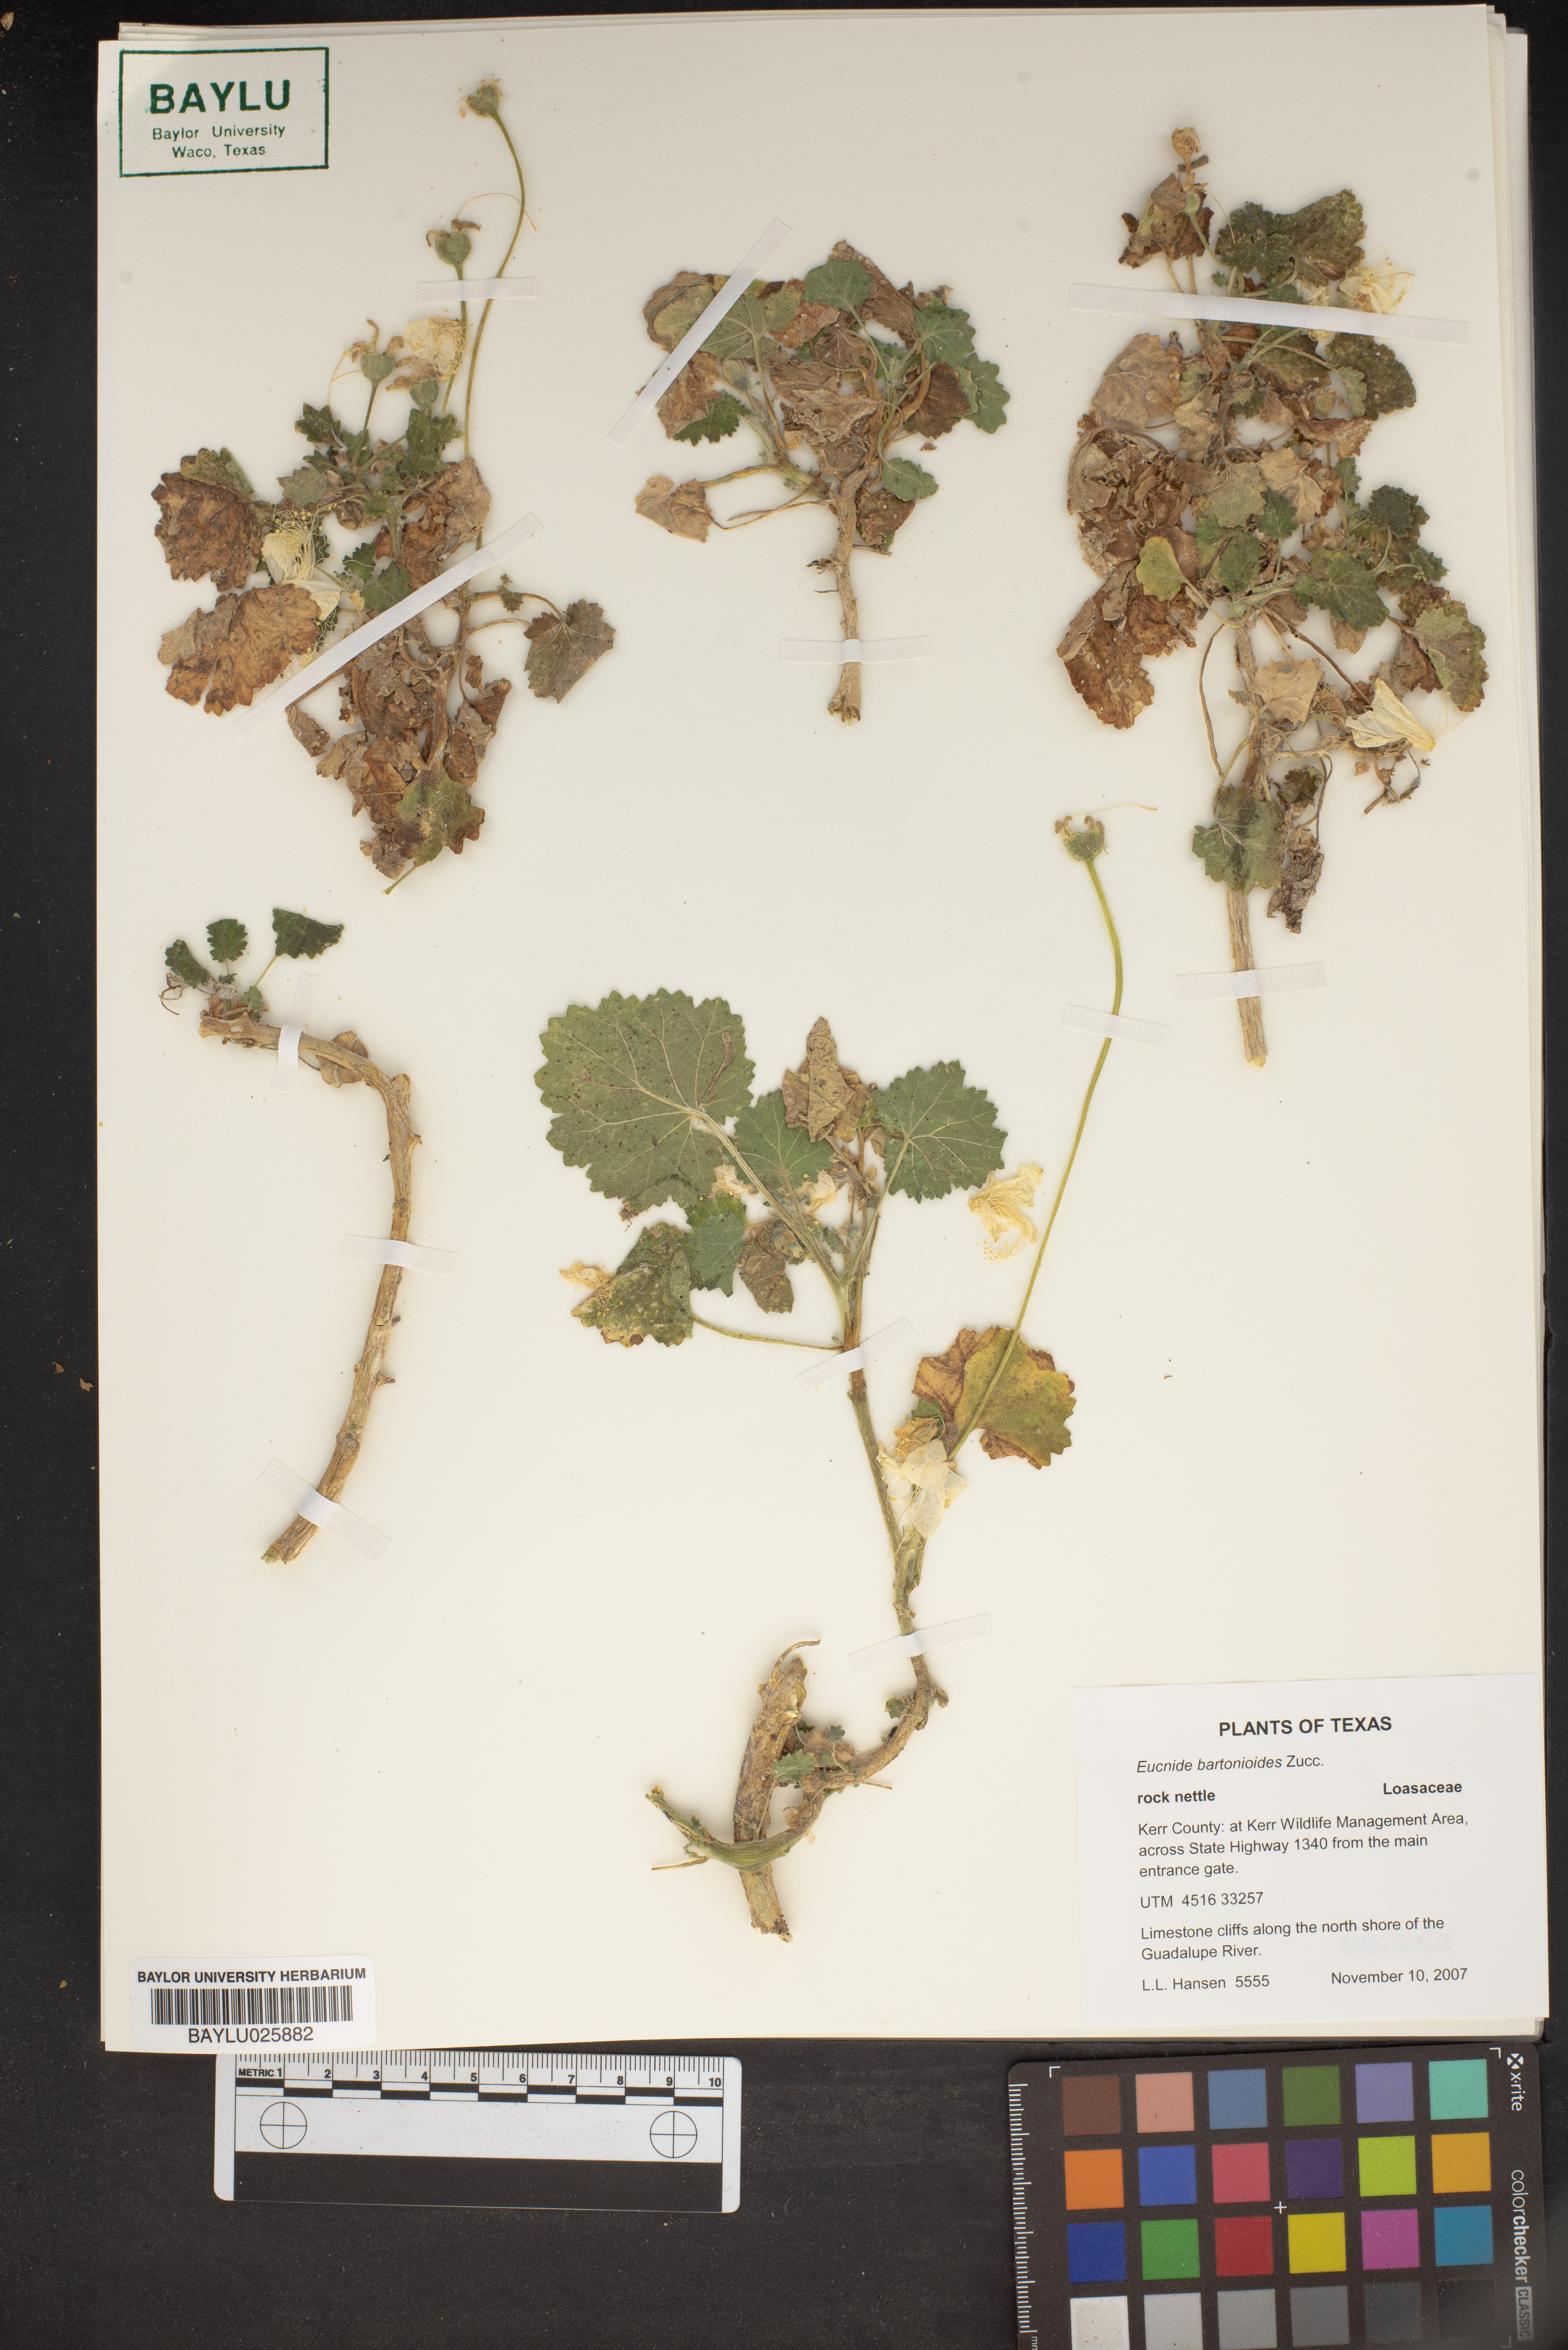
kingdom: Plantae
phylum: Tracheophyta
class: Magnoliopsida
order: Cornales
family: Loasaceae
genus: Eucnide
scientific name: Eucnide bartonioides
